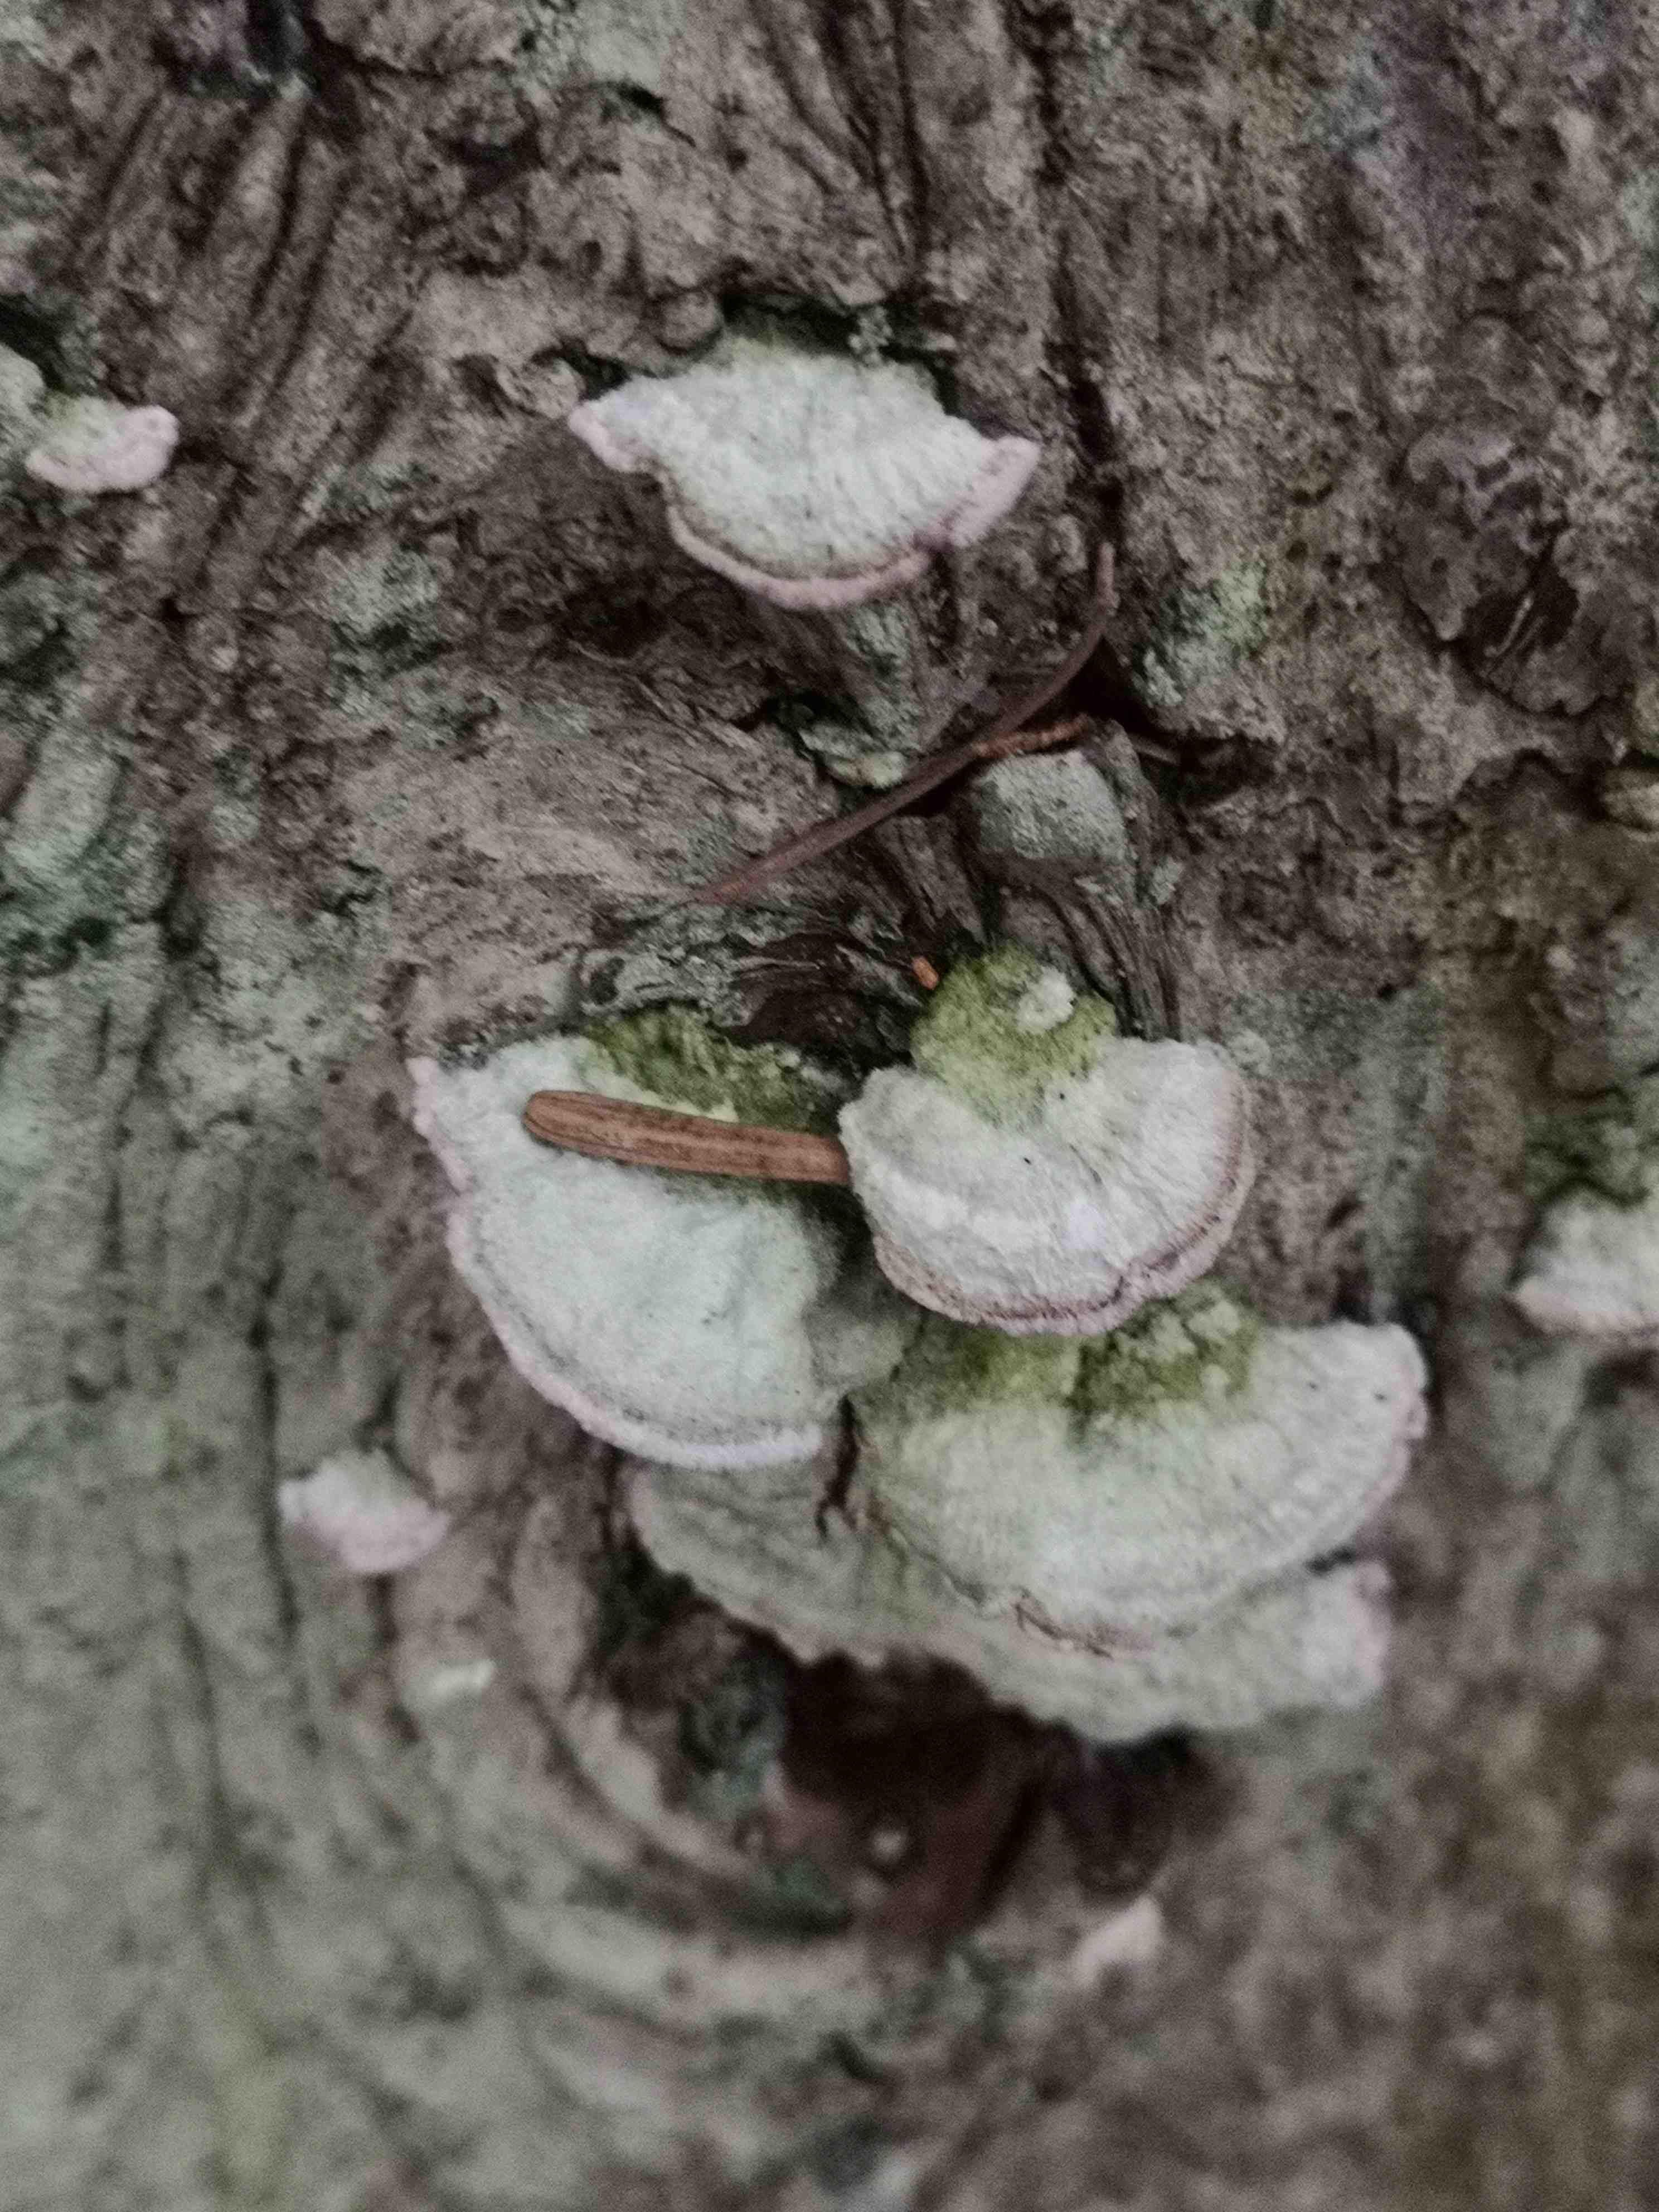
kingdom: Fungi
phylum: Basidiomycota
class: Agaricomycetes
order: Hymenochaetales
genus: Trichaptum
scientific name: Trichaptum abietinum
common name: almindelig violporesvamp
